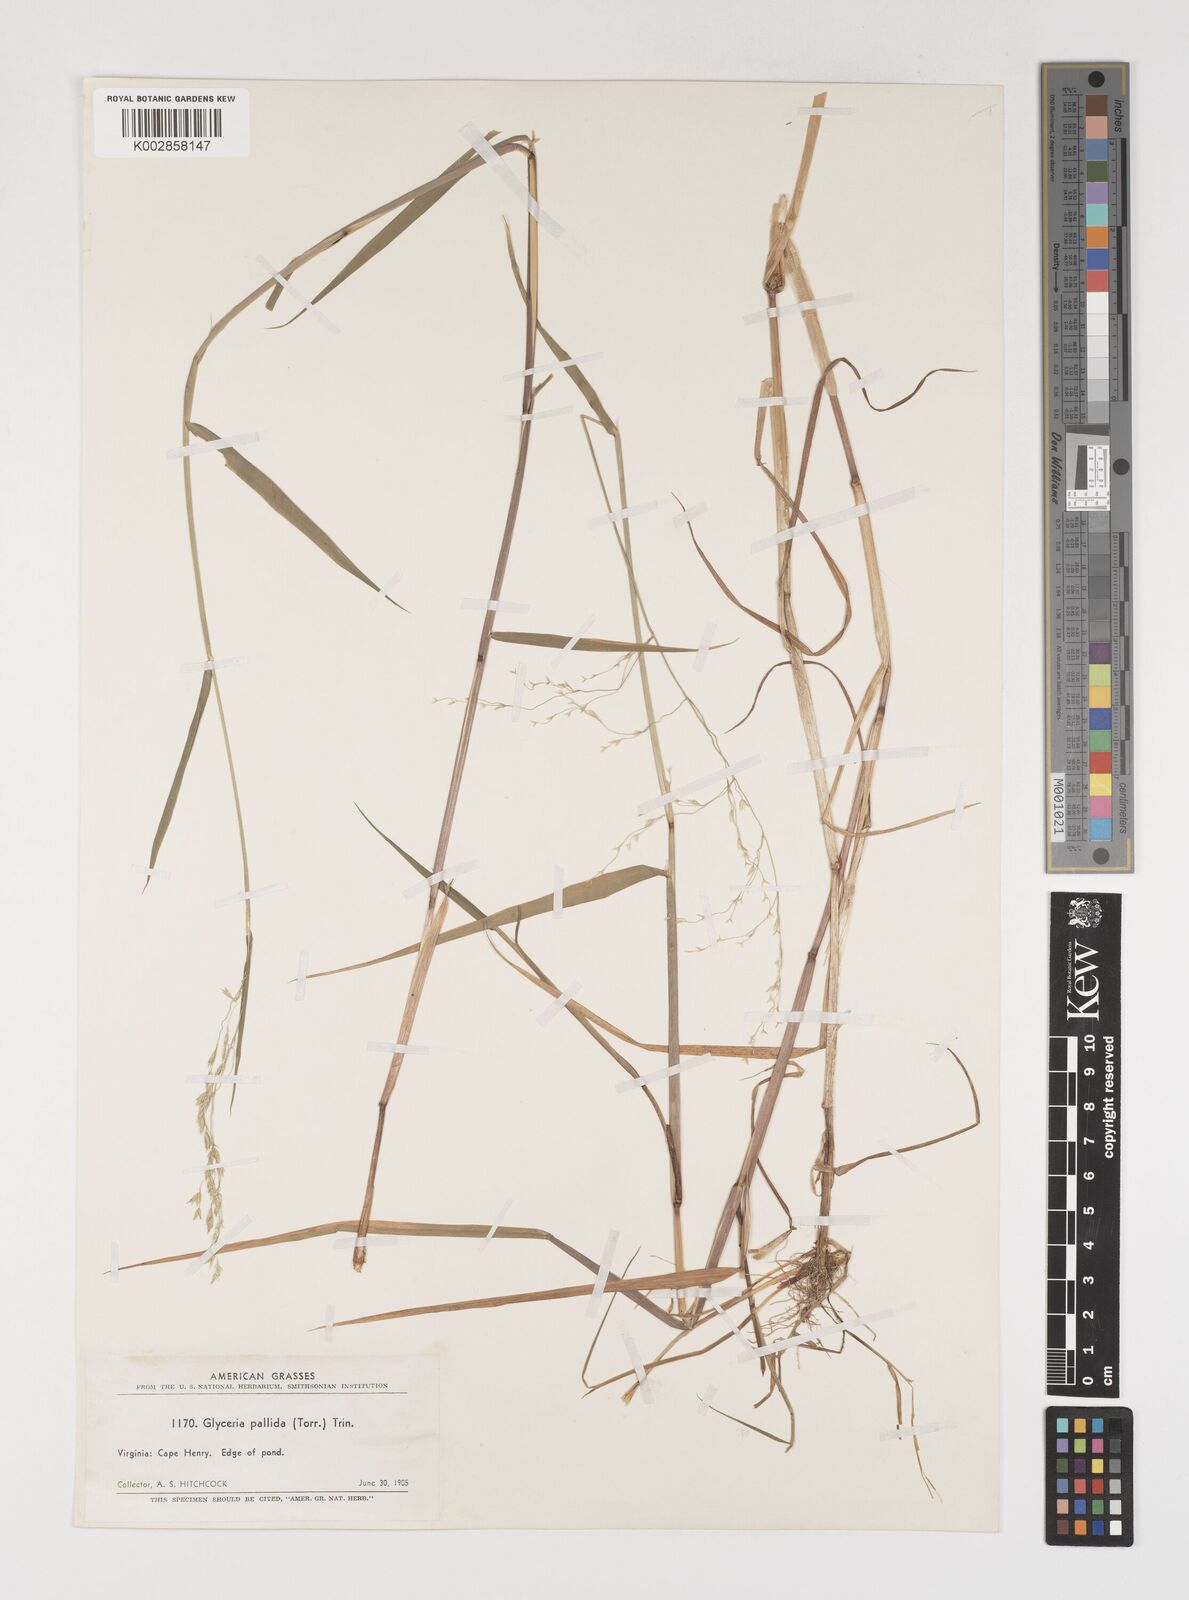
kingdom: Plantae
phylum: Tracheophyta
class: Liliopsida
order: Poales
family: Poaceae
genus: Torreyochloa
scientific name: Torreyochloa pallida
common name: Pale false mannagrass
